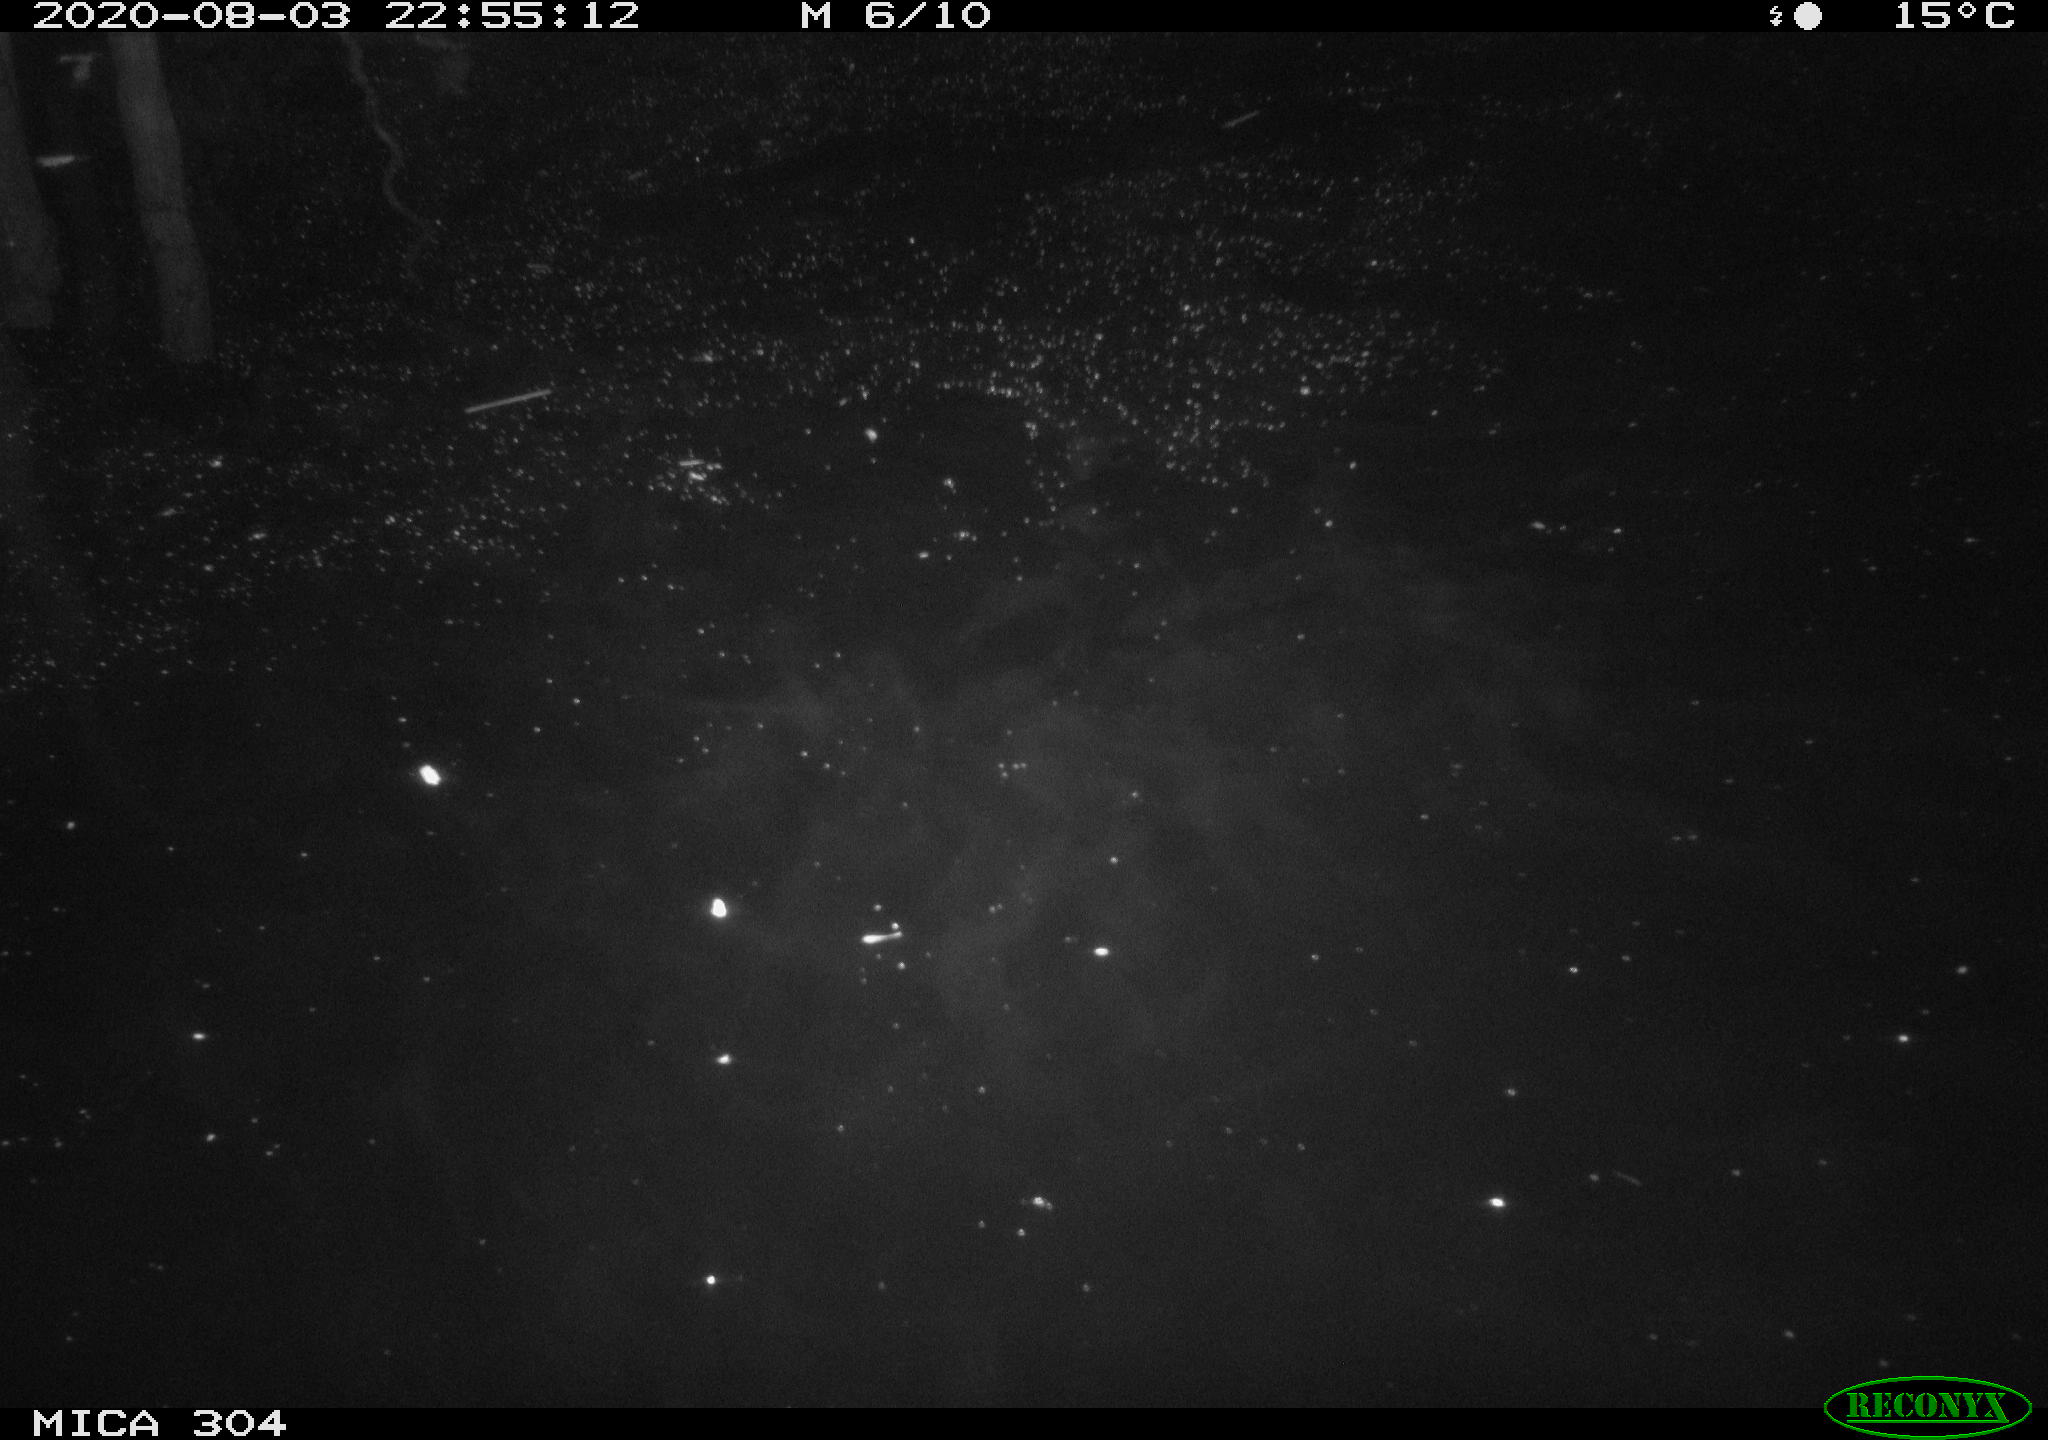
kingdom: Animalia
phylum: Chordata
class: Mammalia
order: Rodentia
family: Cricetidae
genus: Ondatra
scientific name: Ondatra zibethicus
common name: Muskrat
